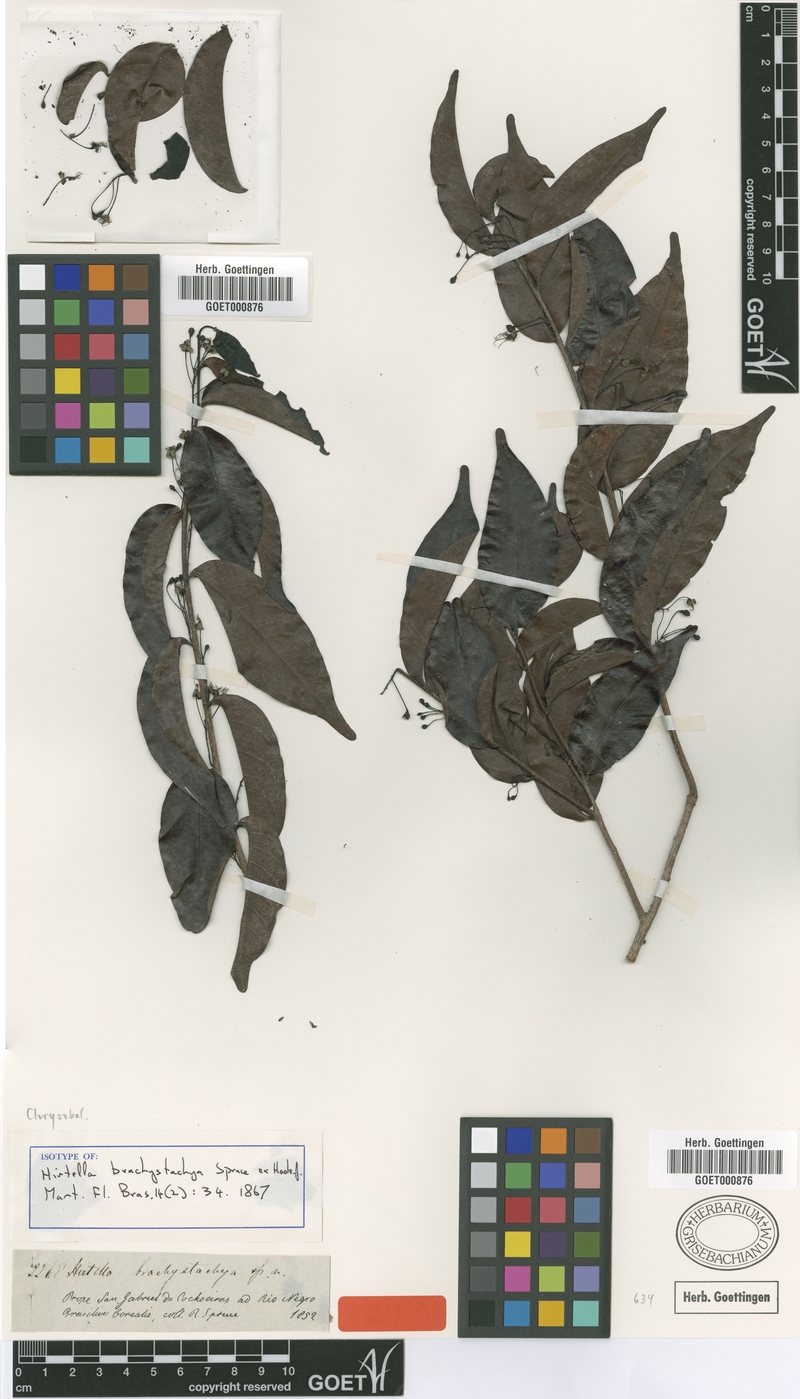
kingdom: Plantae
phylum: Tracheophyta
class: Magnoliopsida
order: Malpighiales
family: Chrysobalanaceae
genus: Hirtella
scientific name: Hirtella brachystachys
